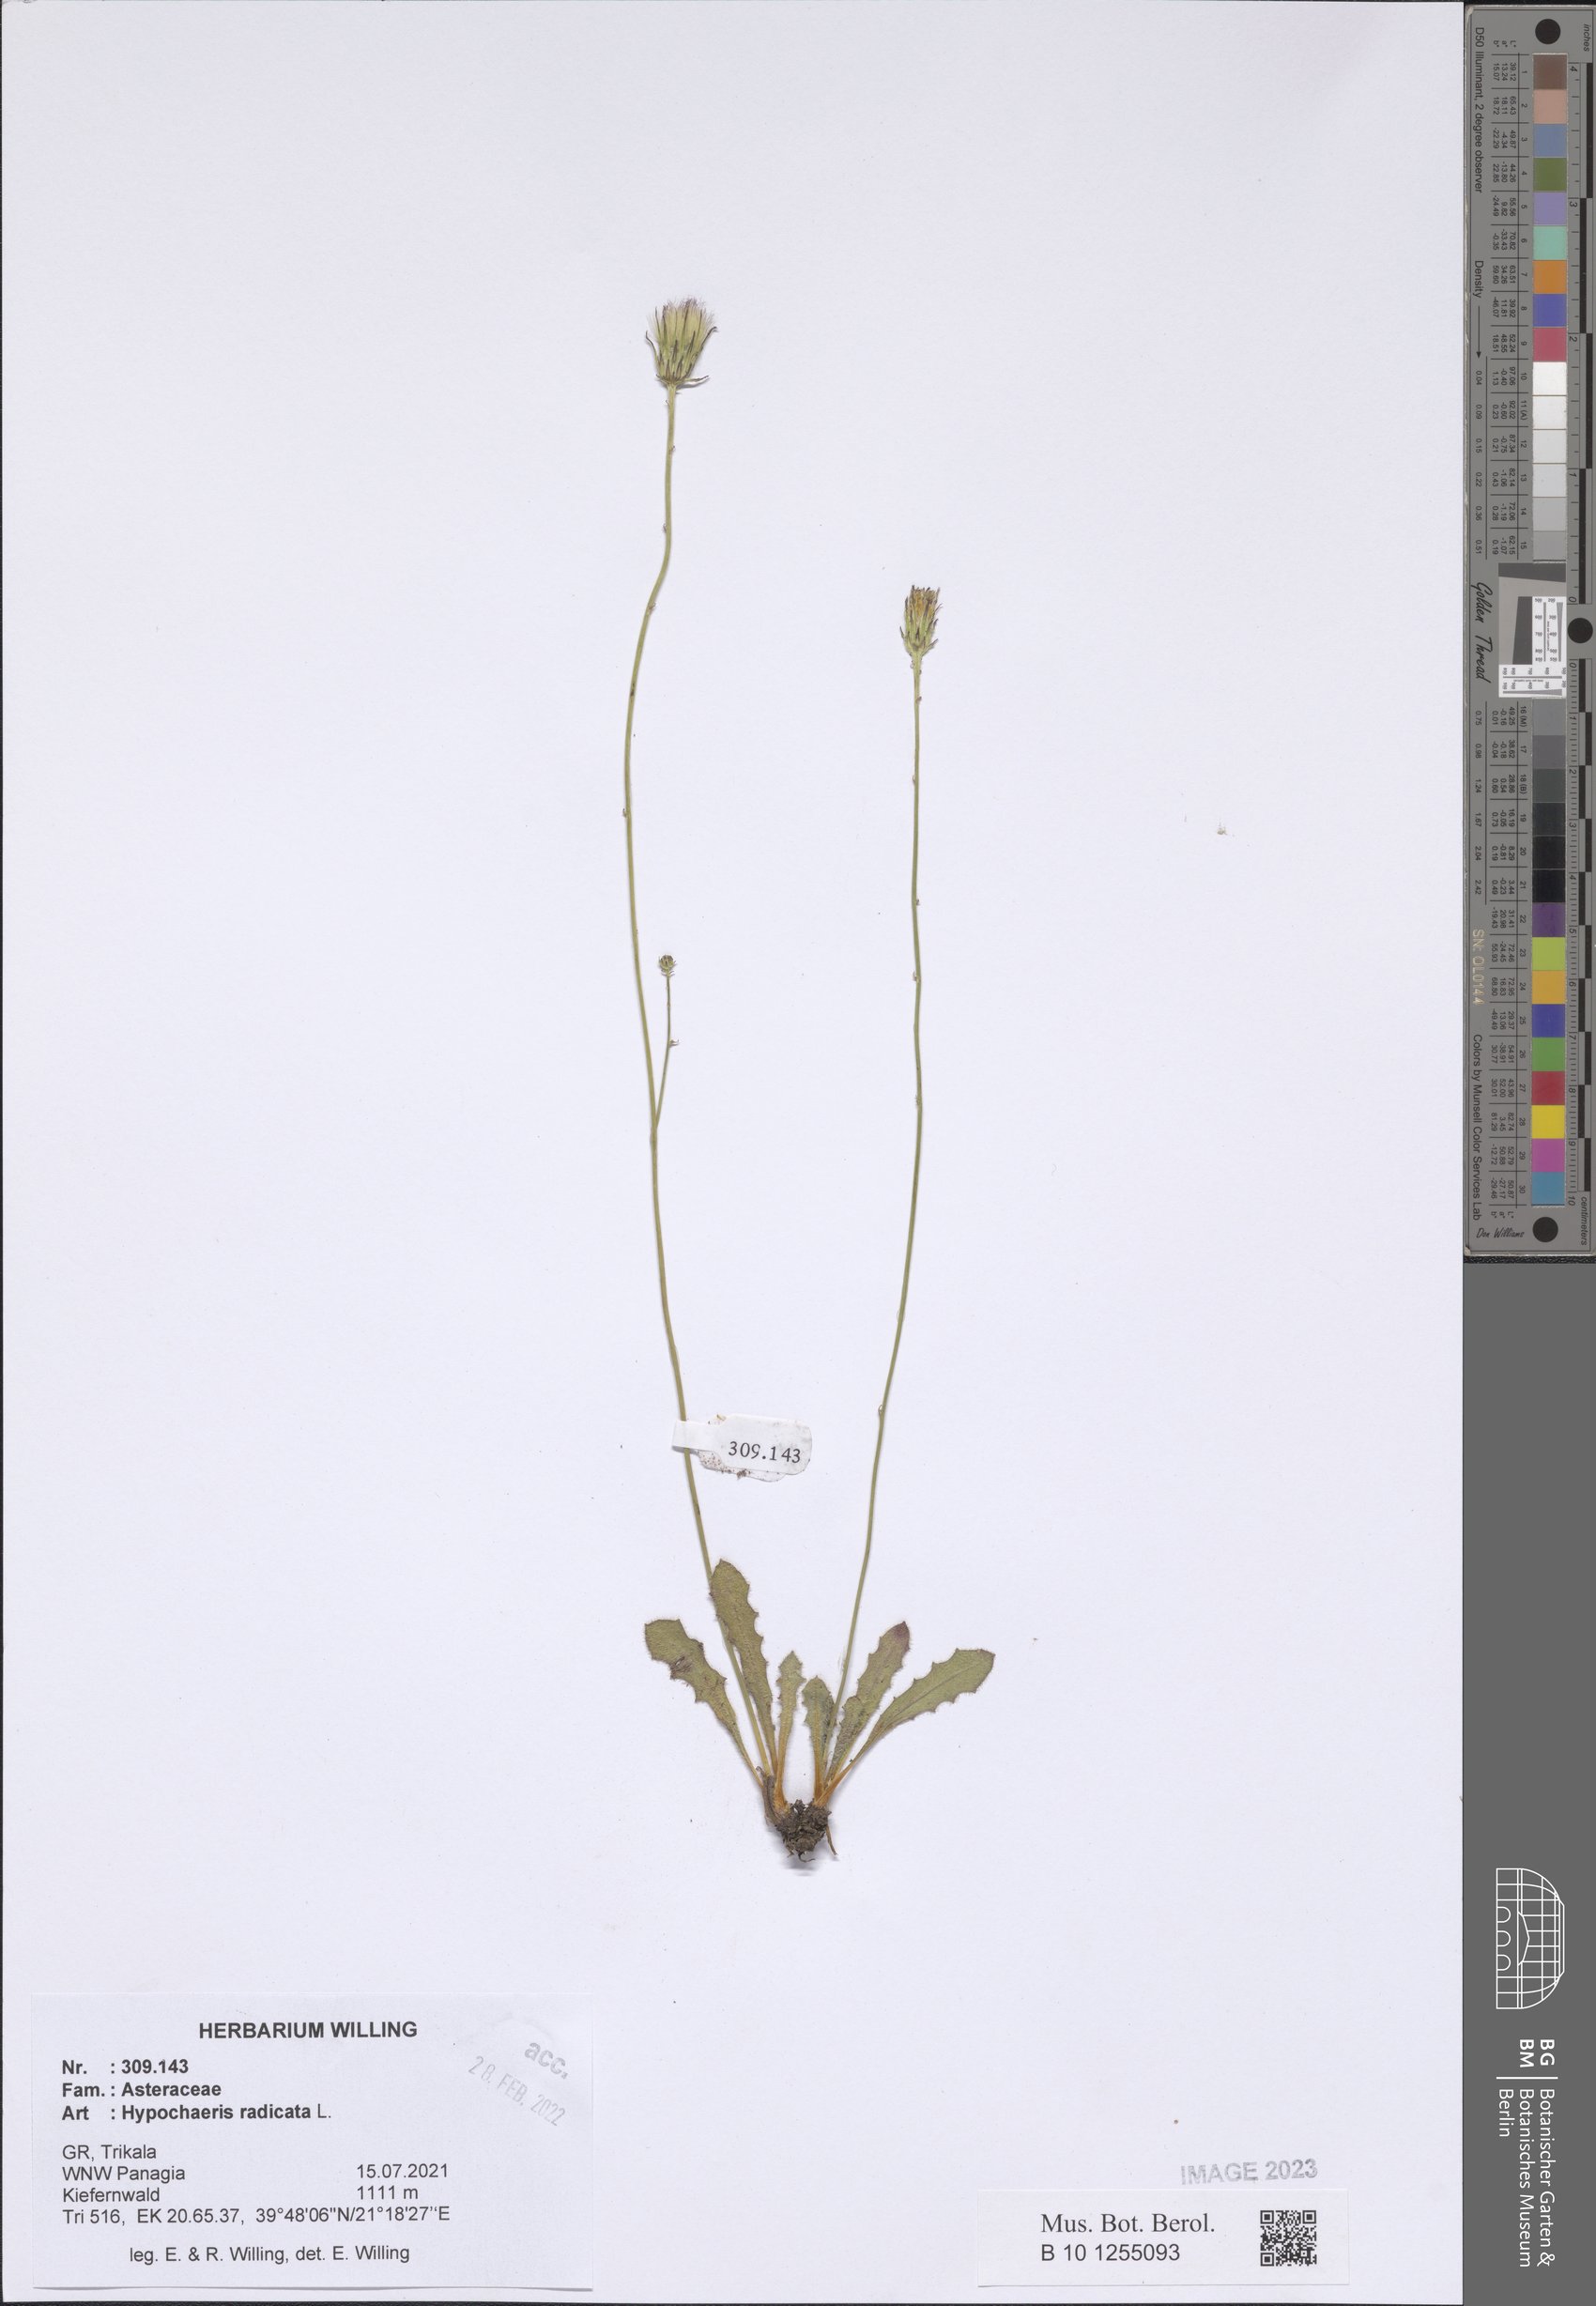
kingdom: Plantae
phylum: Tracheophyta
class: Magnoliopsida
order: Asterales
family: Asteraceae
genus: Hypochaeris
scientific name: Hypochaeris radicata
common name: Flatweed
